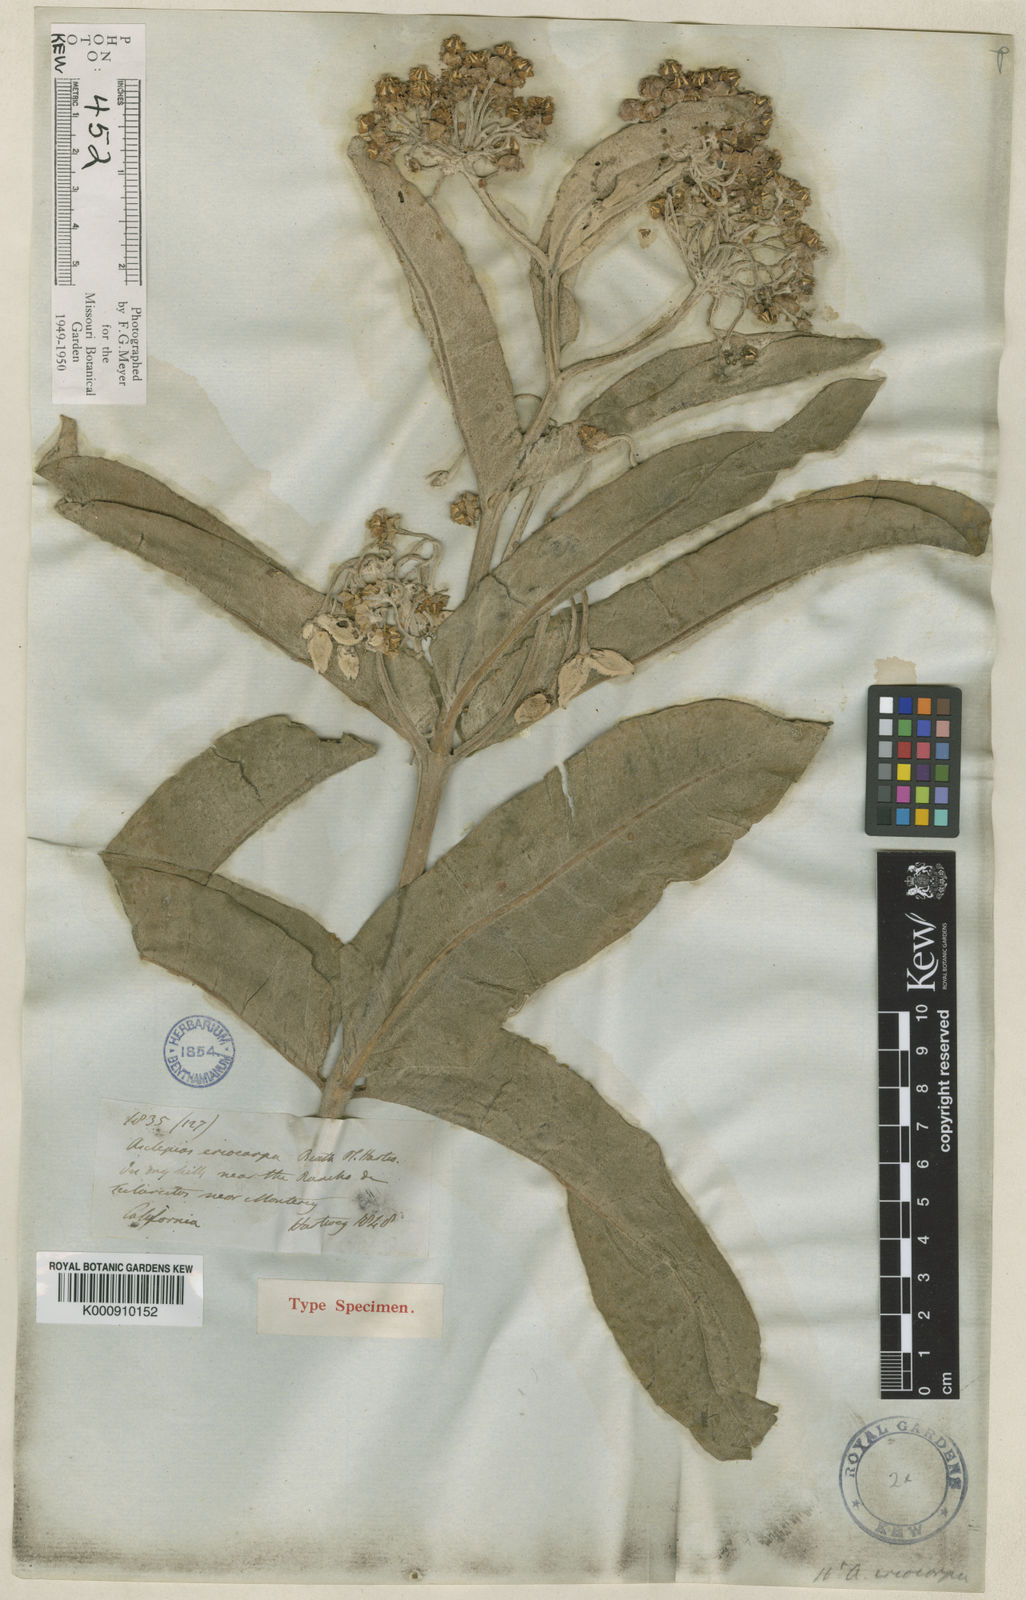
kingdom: Plantae
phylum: Tracheophyta
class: Magnoliopsida
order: Gentianales
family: Apocynaceae
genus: Asclepias
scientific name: Asclepias eriocarpa
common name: Indian milkweed
